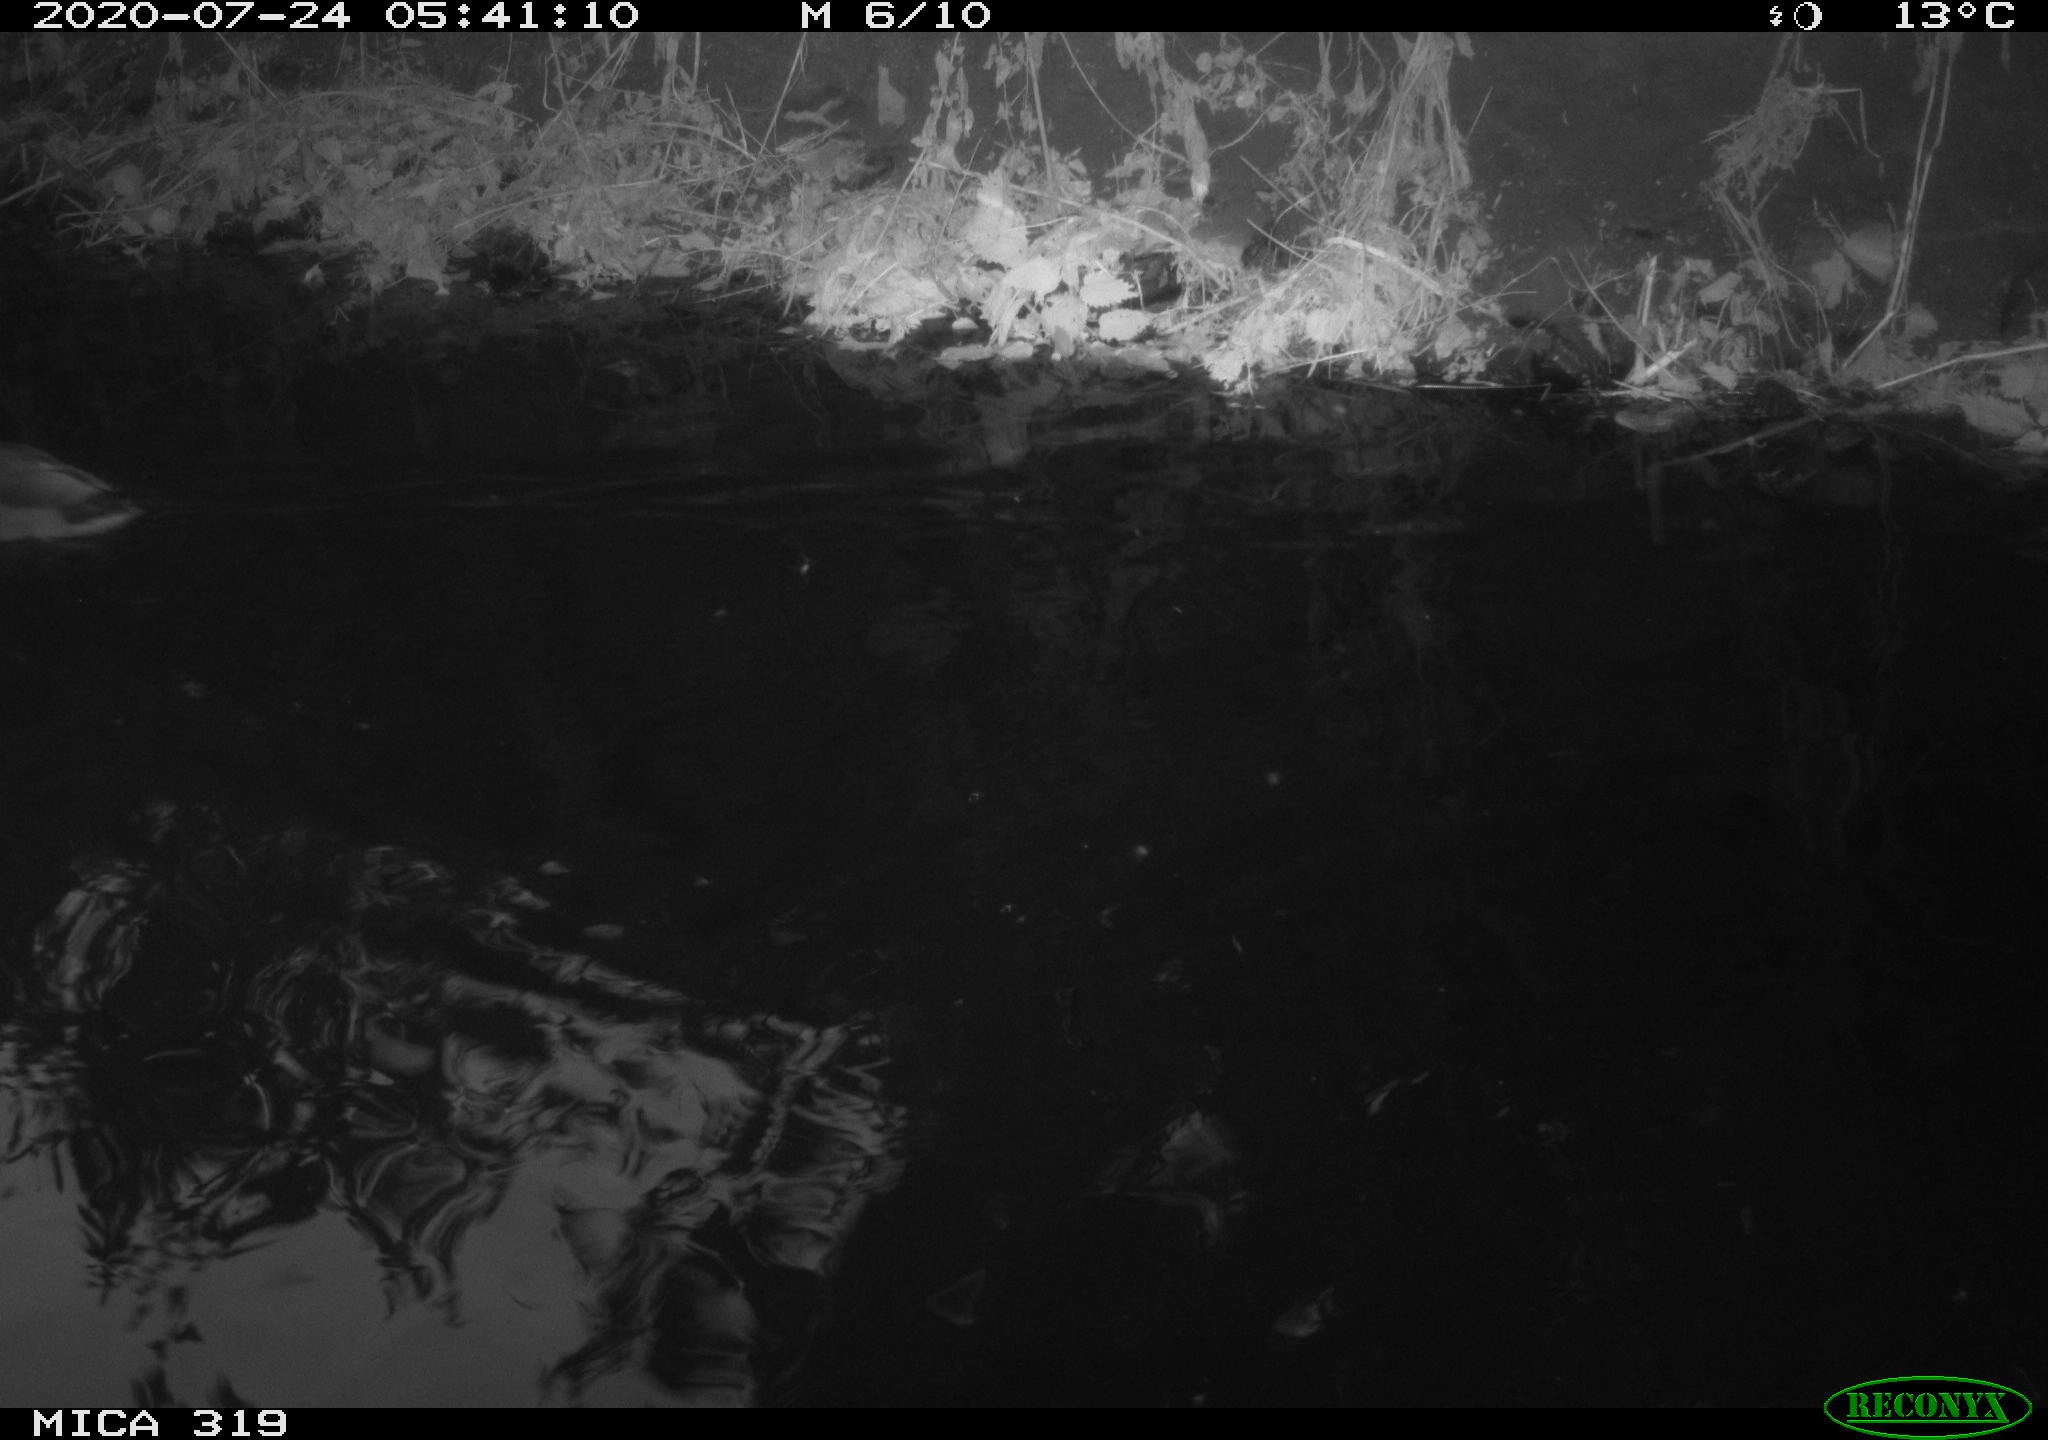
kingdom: Animalia
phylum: Chordata
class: Aves
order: Anseriformes
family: Anatidae
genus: Anas
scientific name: Anas platyrhynchos
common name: Mallard
